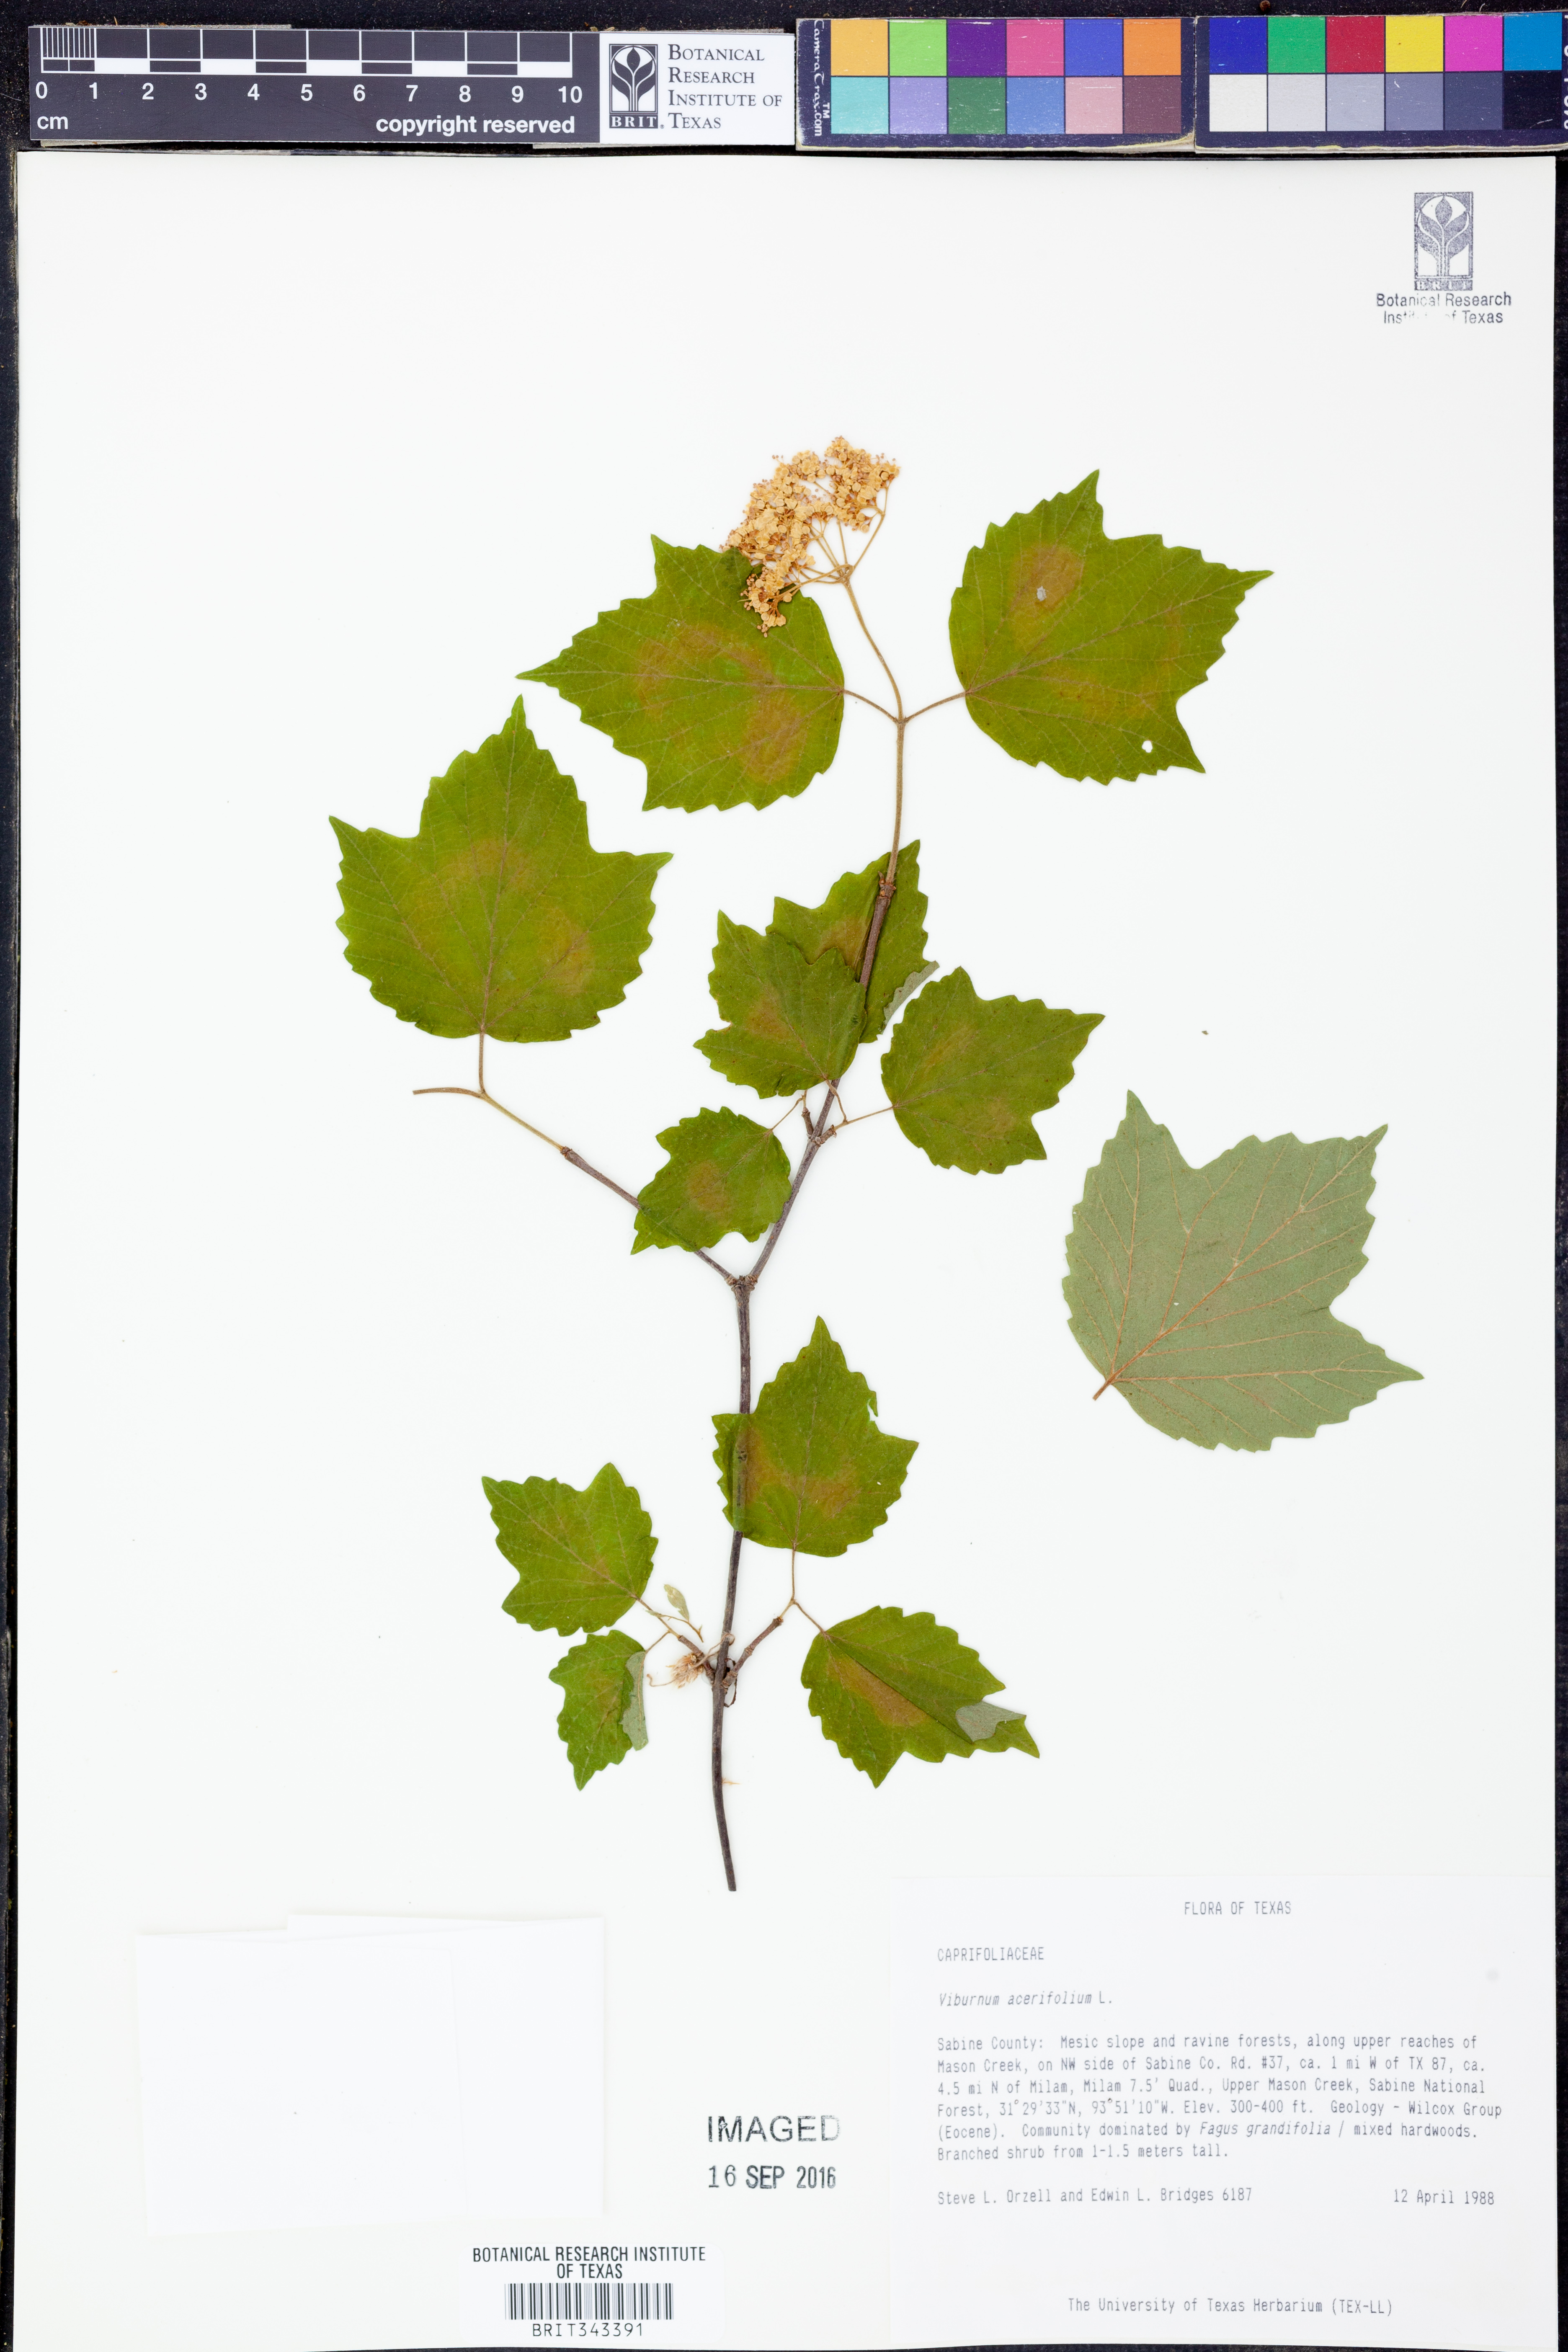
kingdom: Plantae
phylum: Tracheophyta
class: Magnoliopsida
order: Dipsacales
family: Viburnaceae
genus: Viburnum
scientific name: Viburnum acerifolium
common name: Dockmackie
